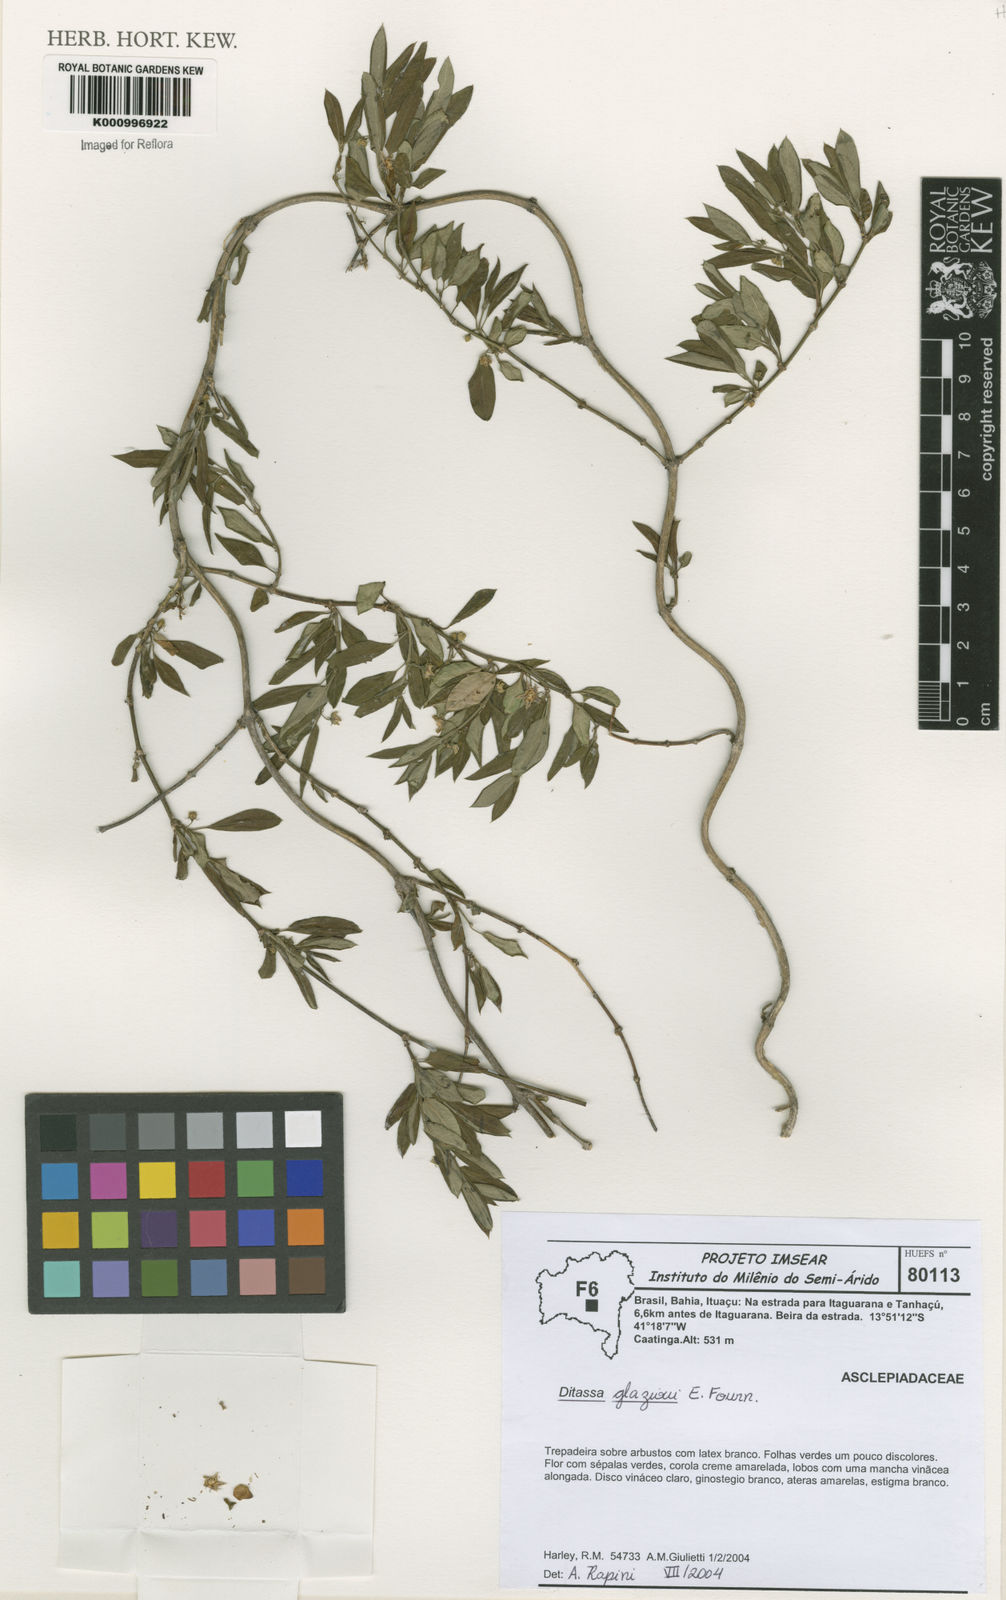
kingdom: Plantae
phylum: Tracheophyta
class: Magnoliopsida
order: Gentianales
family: Apocynaceae
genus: Ditassa
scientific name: Ditassa
